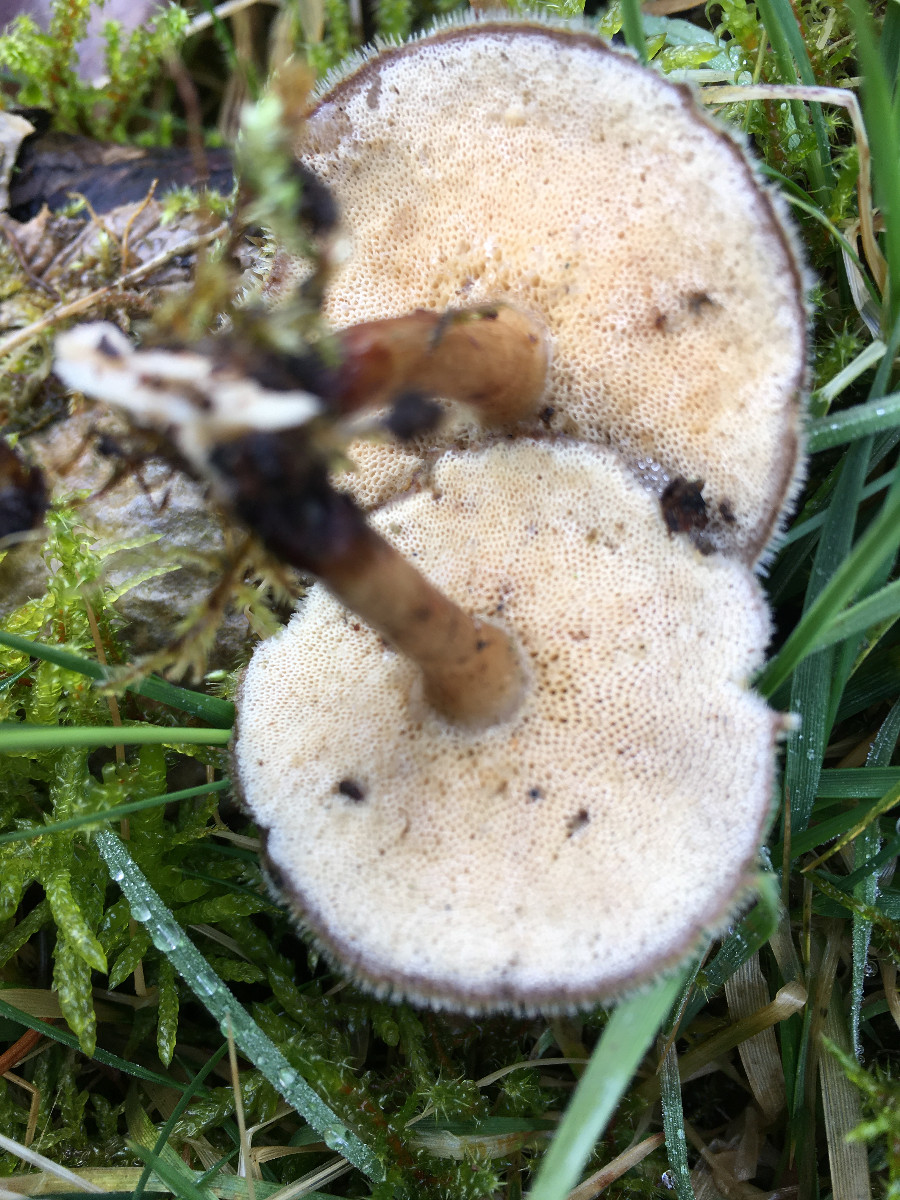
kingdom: Fungi
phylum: Basidiomycota
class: Agaricomycetes
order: Polyporales
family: Polyporaceae
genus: Lentinus
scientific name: Lentinus brumalis
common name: vinter-stilkporesvamp
